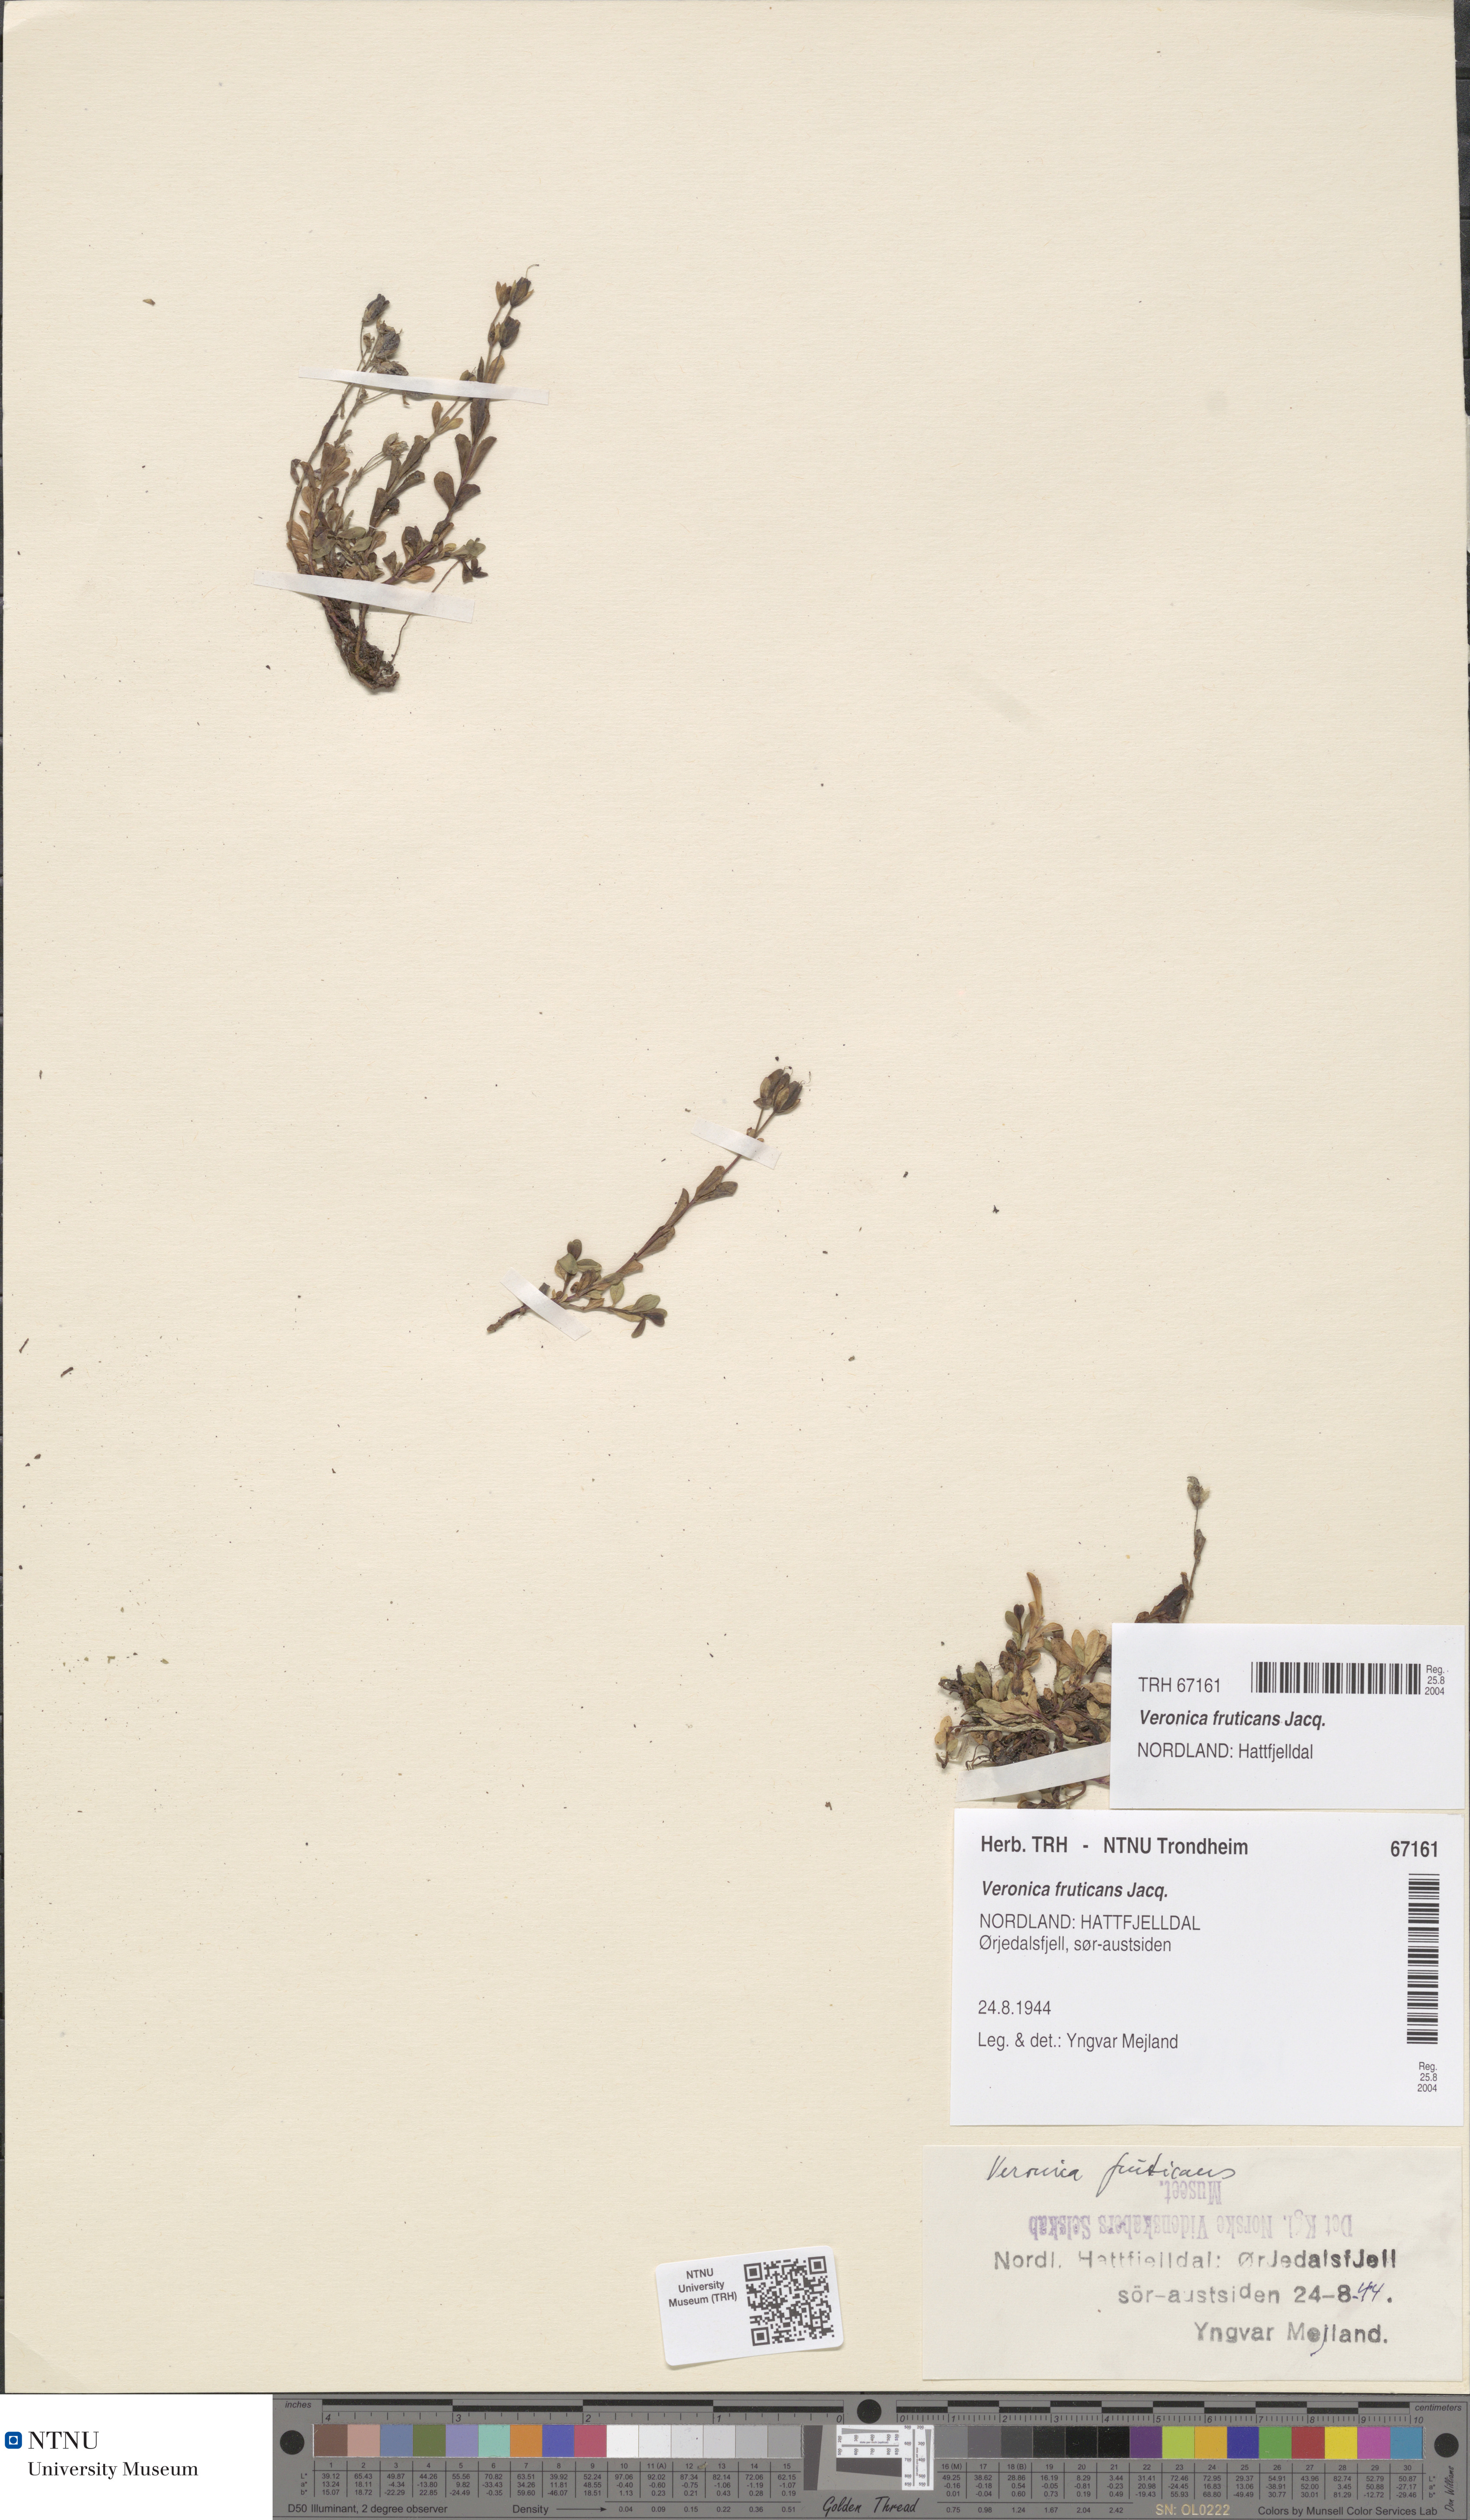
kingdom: Plantae
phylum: Tracheophyta
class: Magnoliopsida
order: Lamiales
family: Plantaginaceae
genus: Veronica
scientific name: Veronica fruticans
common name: Rock speedwell
